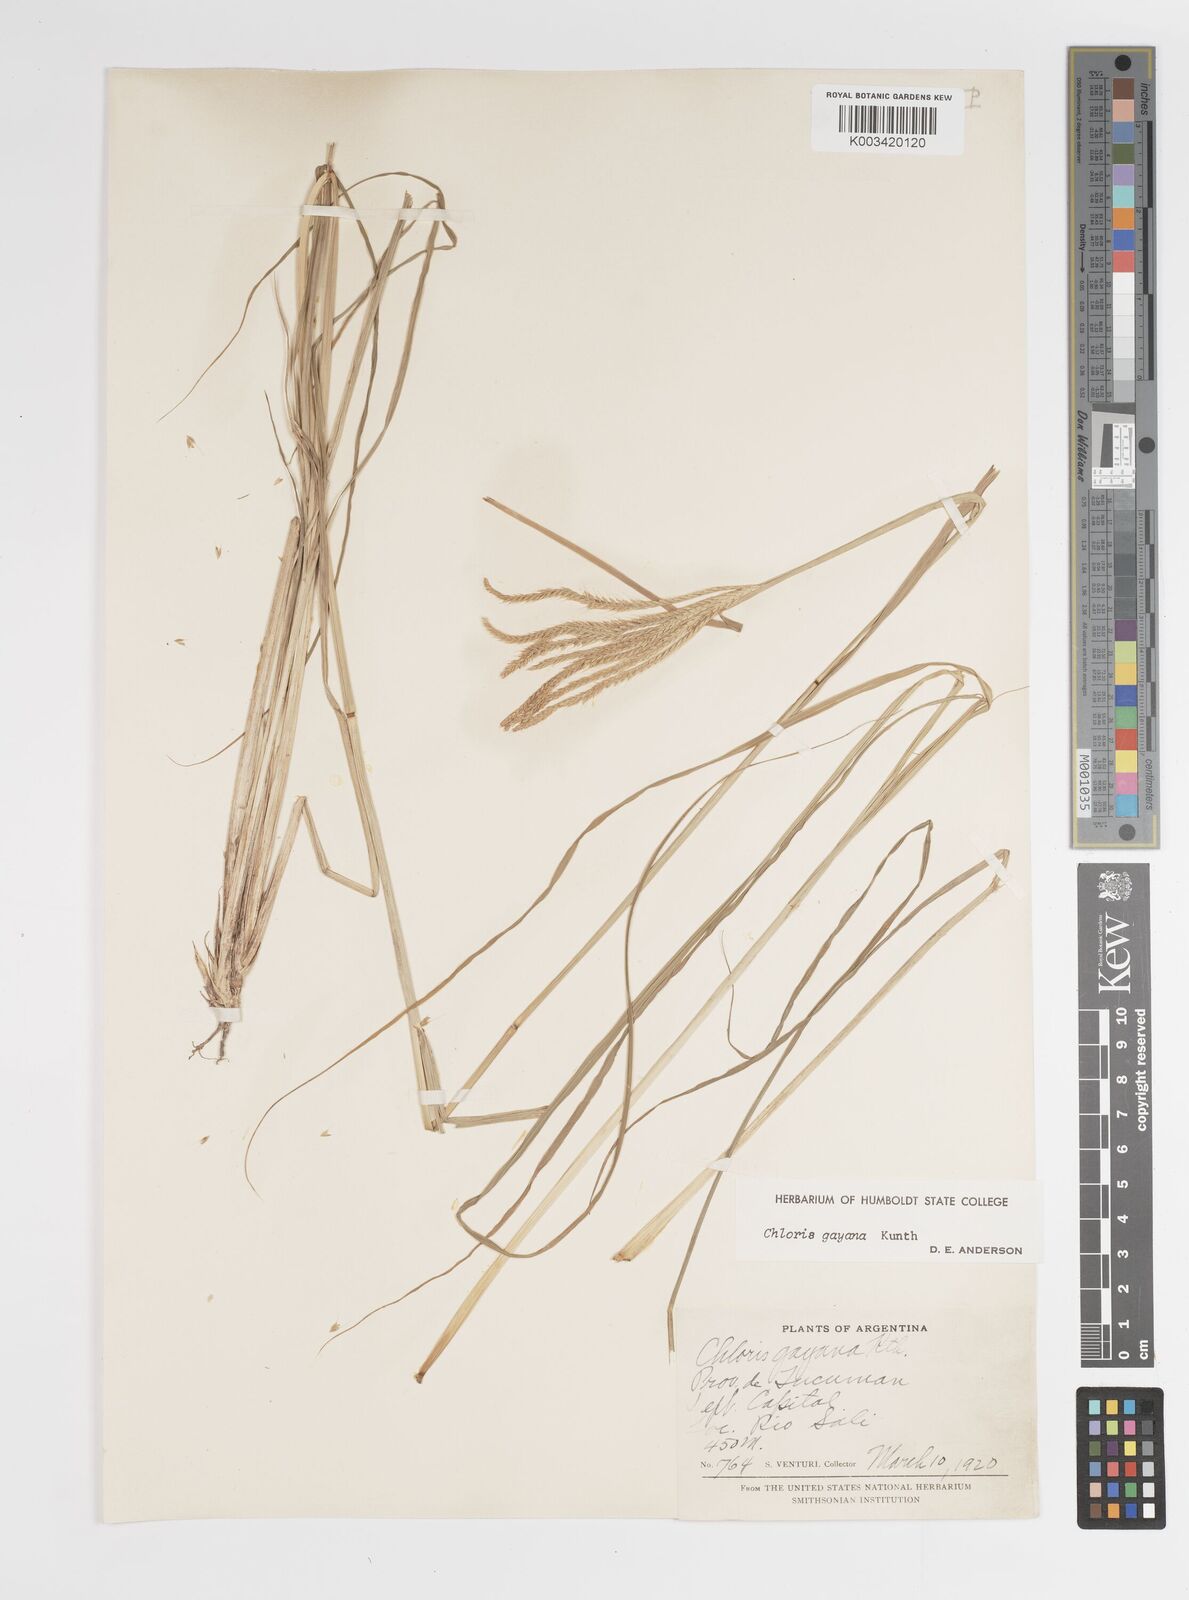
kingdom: Plantae
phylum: Tracheophyta
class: Liliopsida
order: Poales
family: Poaceae
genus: Chloris
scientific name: Chloris gayana
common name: Rhodes grass
